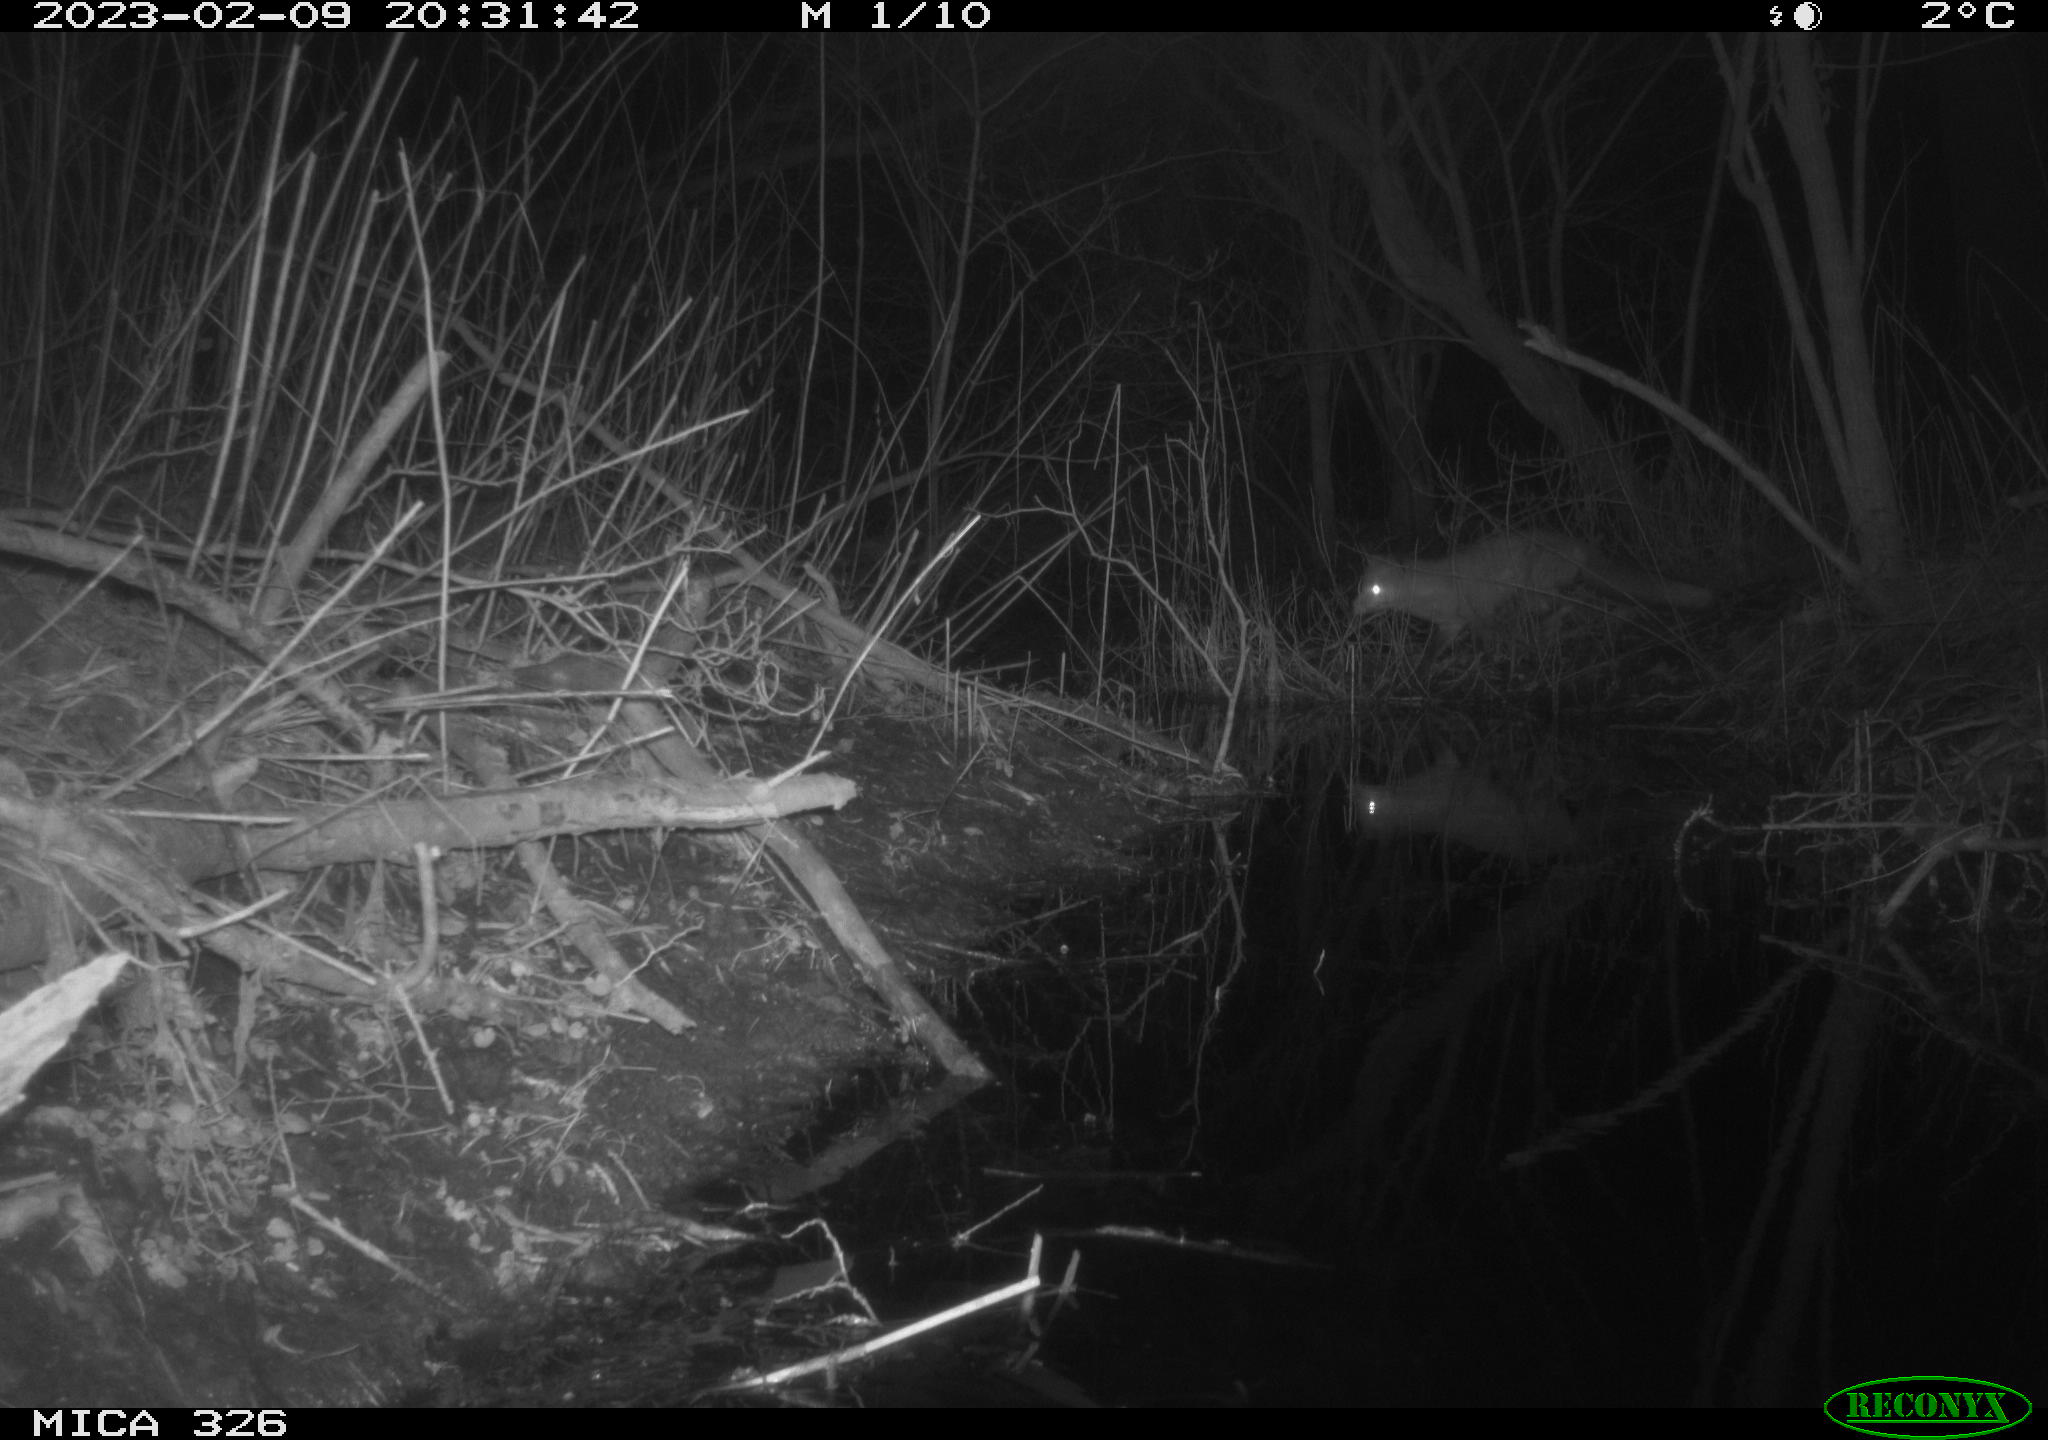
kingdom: Animalia
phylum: Chordata
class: Mammalia
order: Carnivora
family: Canidae
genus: Vulpes
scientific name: Vulpes vulpes
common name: Red fox
